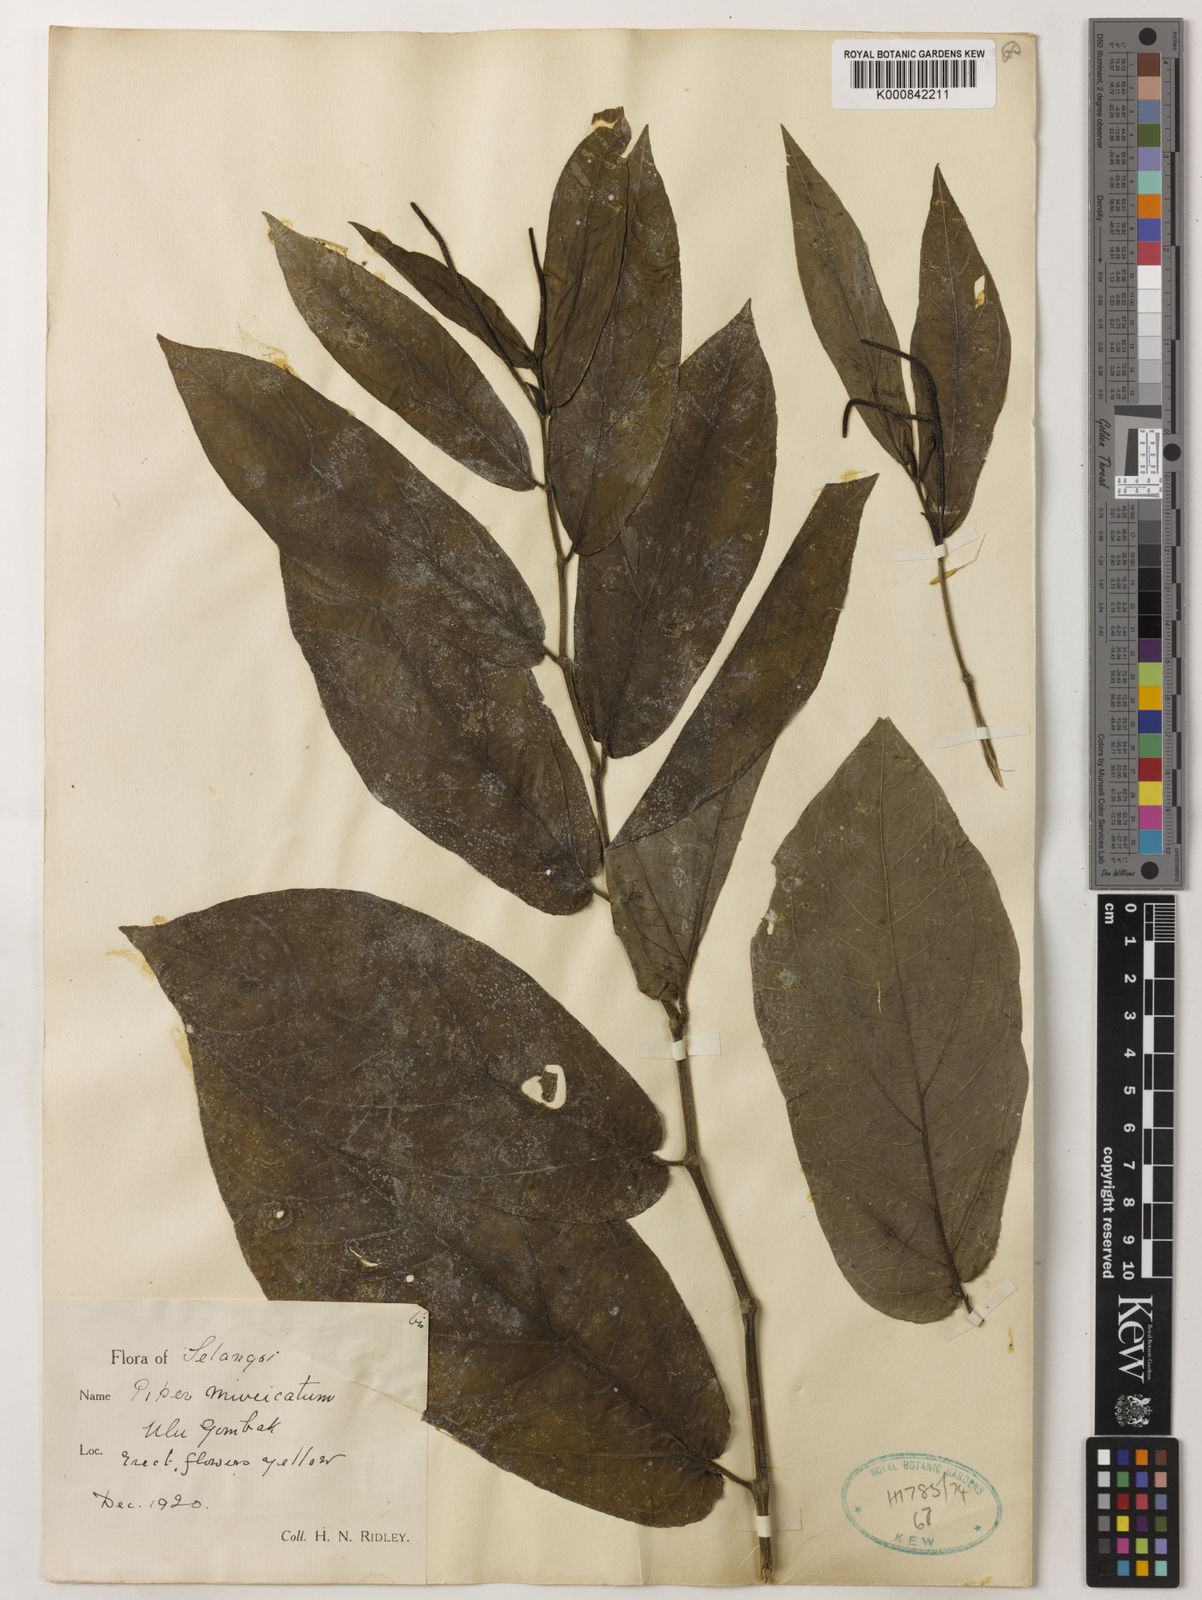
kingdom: Plantae
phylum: Tracheophyta
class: Magnoliopsida
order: Piperales
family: Piperaceae
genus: Piper
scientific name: Piper muricatum
